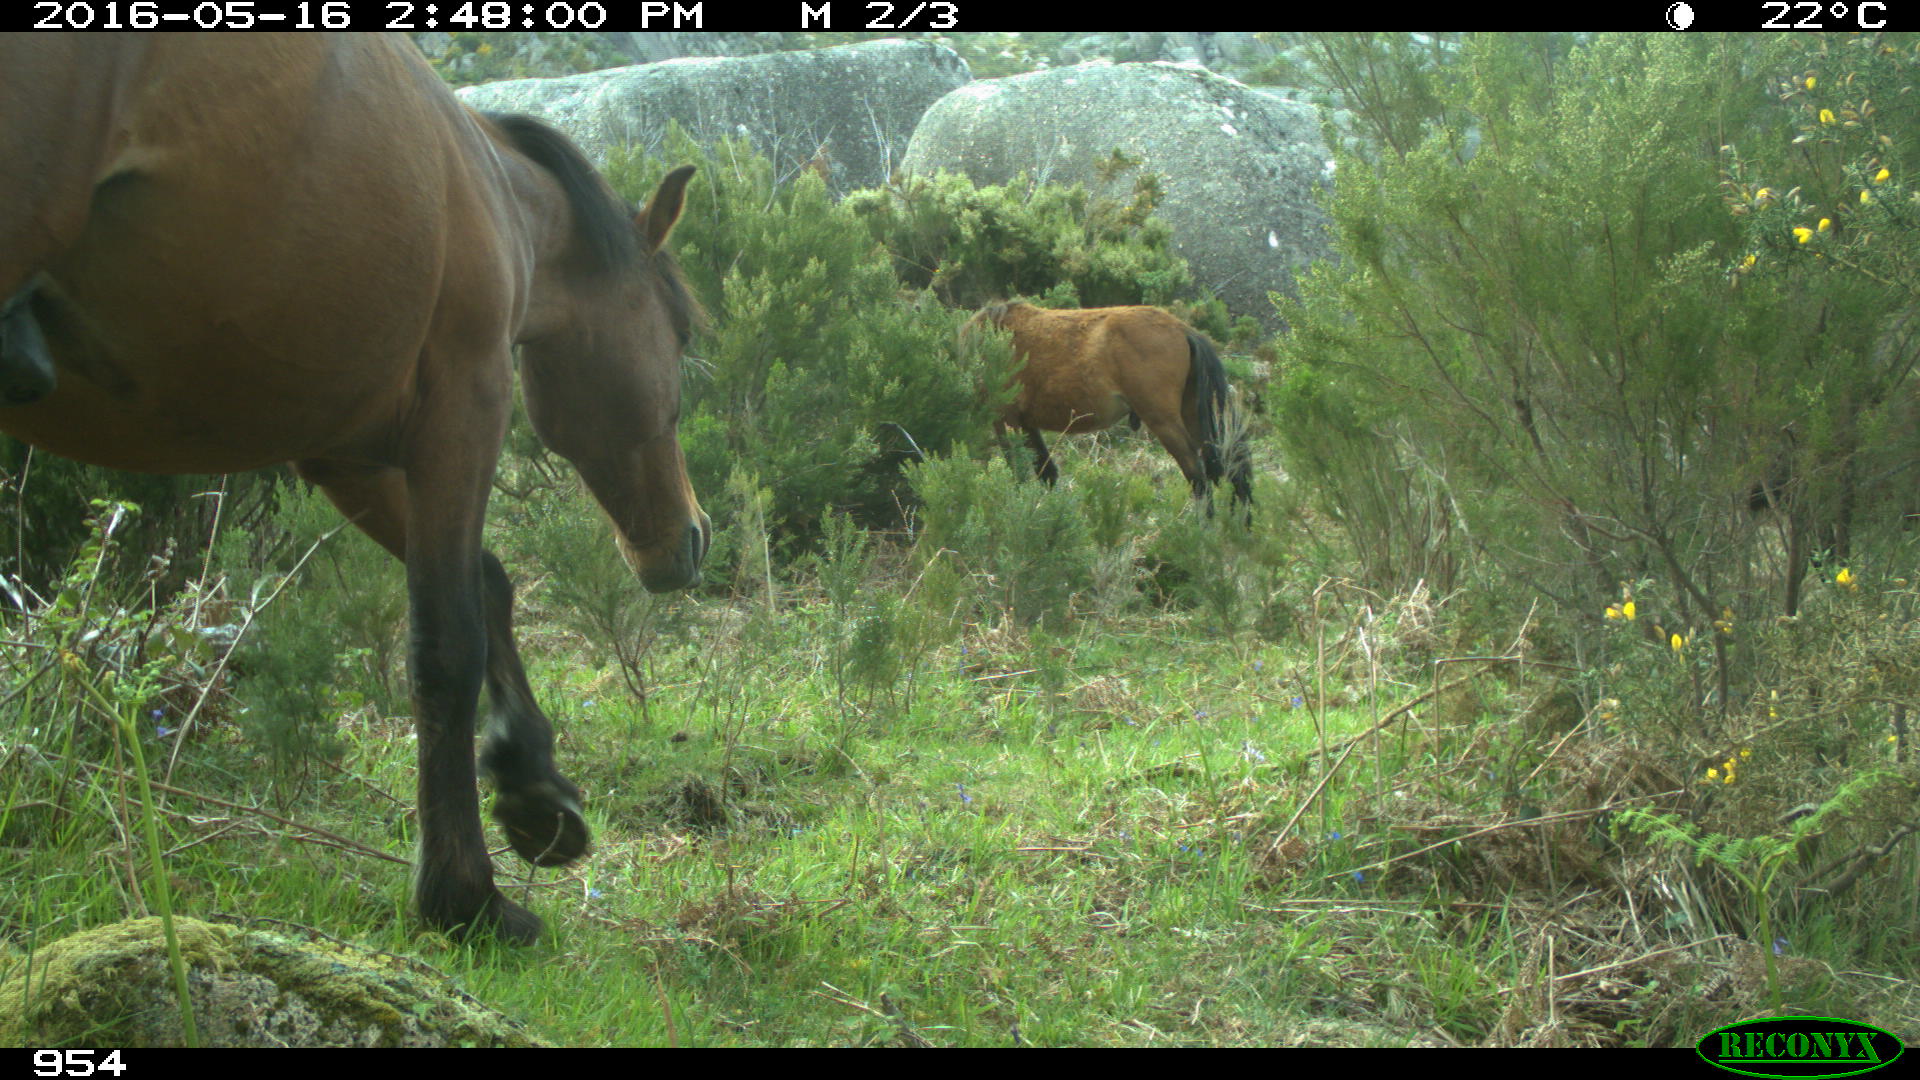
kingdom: Animalia
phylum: Chordata
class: Mammalia
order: Perissodactyla
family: Equidae
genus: Equus
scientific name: Equus caballus
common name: Horse
